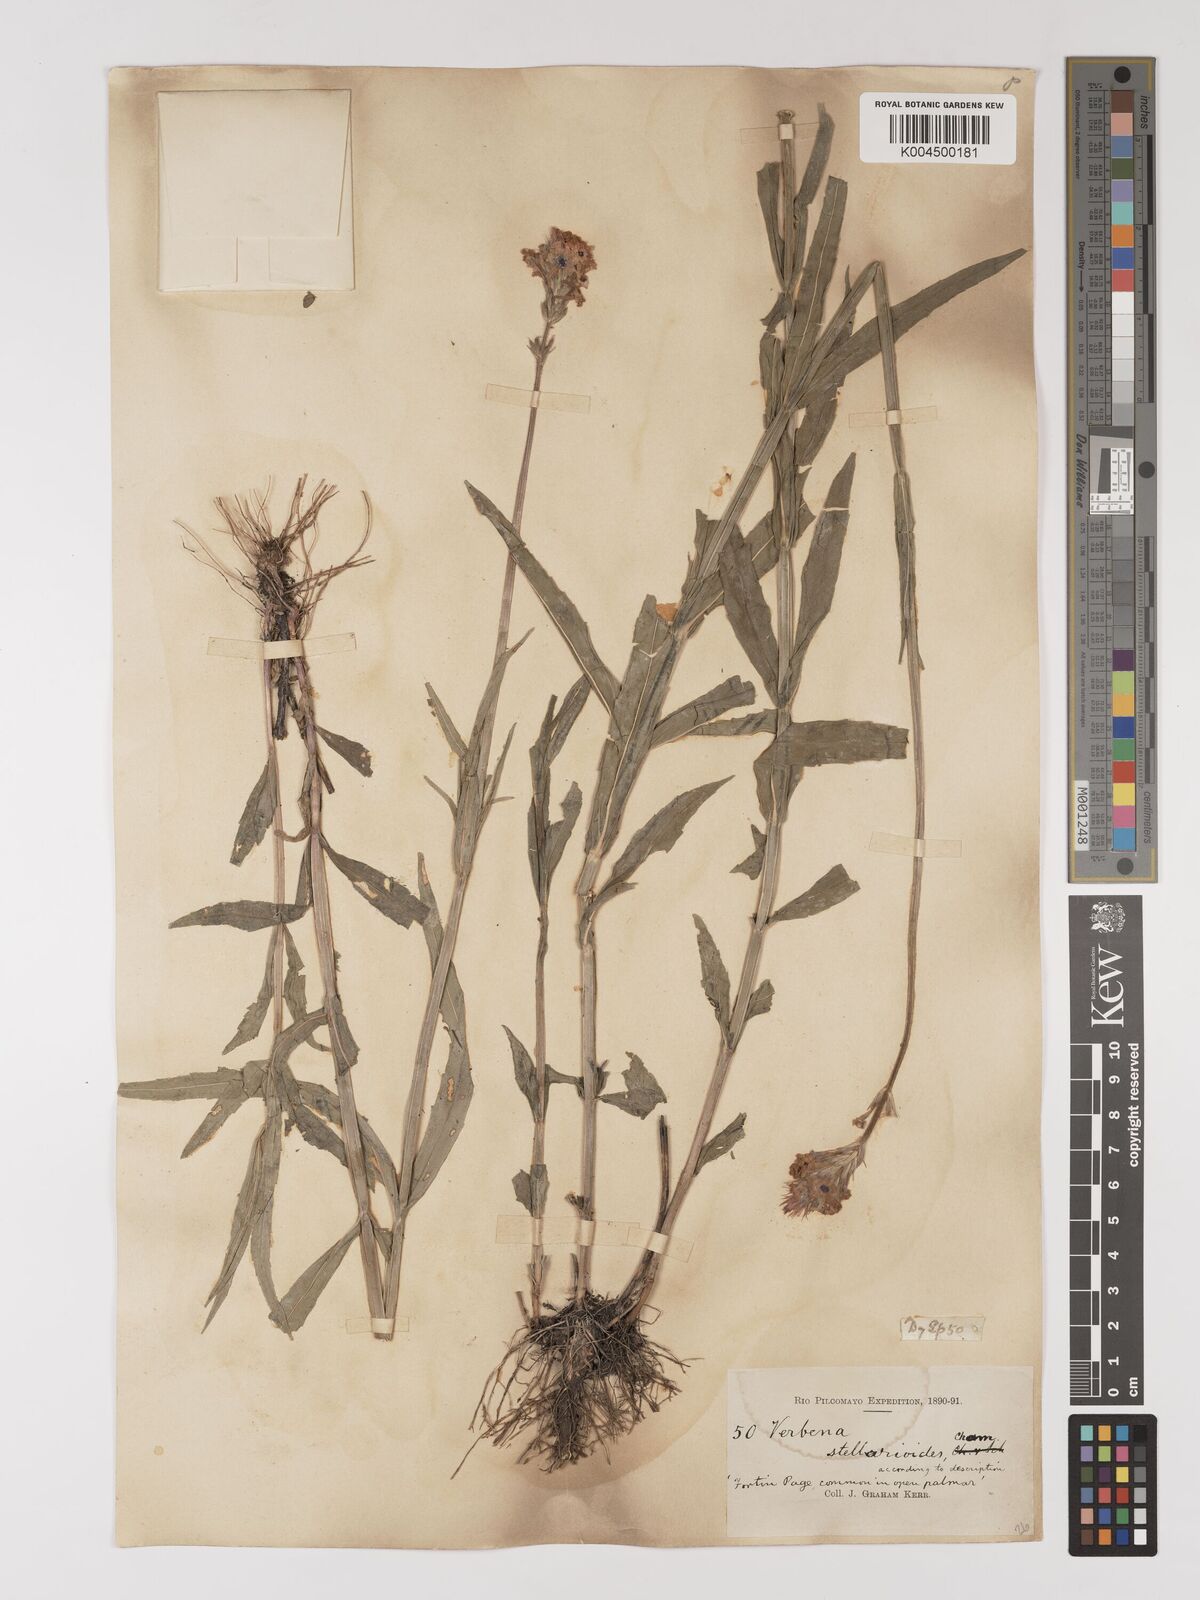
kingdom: Plantae
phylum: Tracheophyta
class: Magnoliopsida
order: Lamiales
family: Verbenaceae
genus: Verbena
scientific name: Verbena
